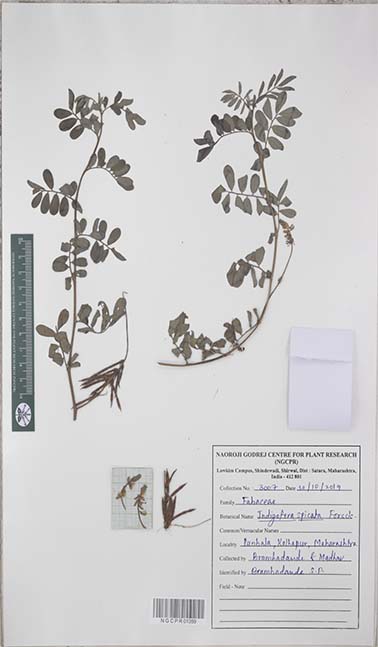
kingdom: Plantae
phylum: Tracheophyta
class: Magnoliopsida
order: Fabales
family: Fabaceae
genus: Indigofera
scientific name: Indigofera spicata
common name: Creeping indigo
